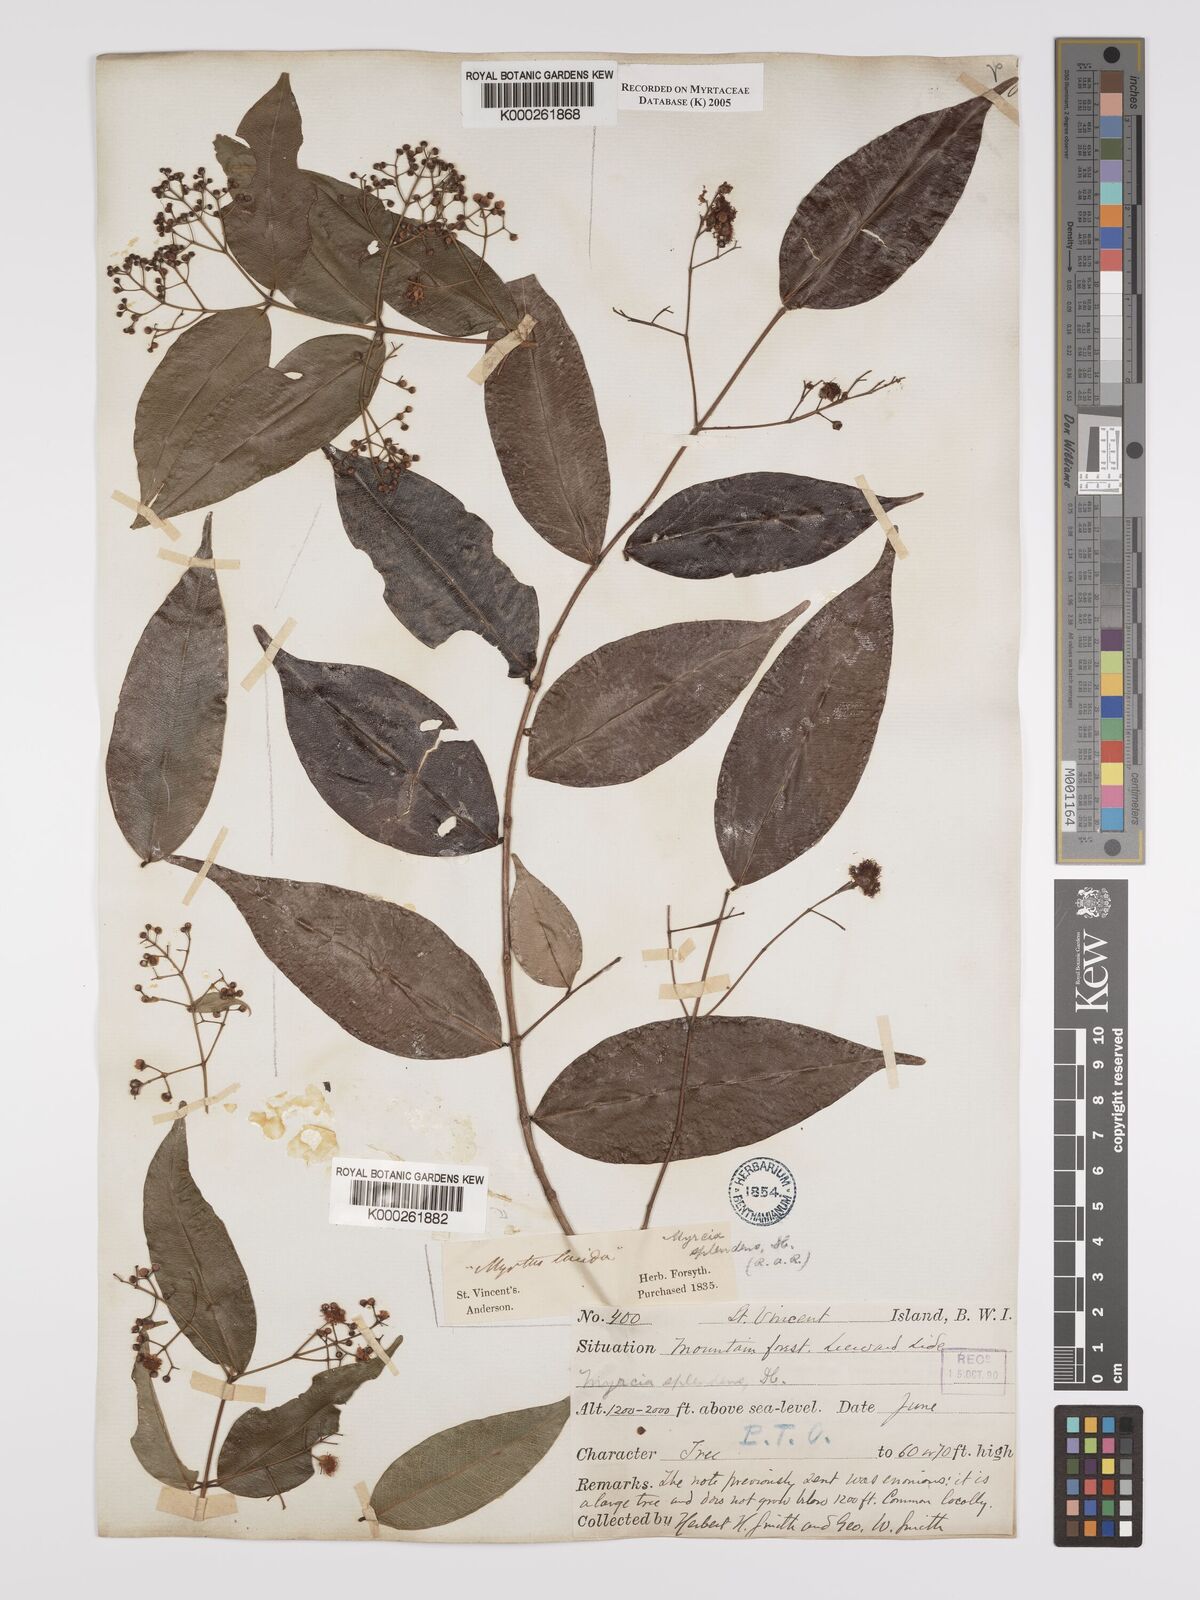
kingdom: Plantae
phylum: Tracheophyta
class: Magnoliopsida
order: Myrtales
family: Myrtaceae
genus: Myrcia
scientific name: Myrcia splendens
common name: Surinam cherry
